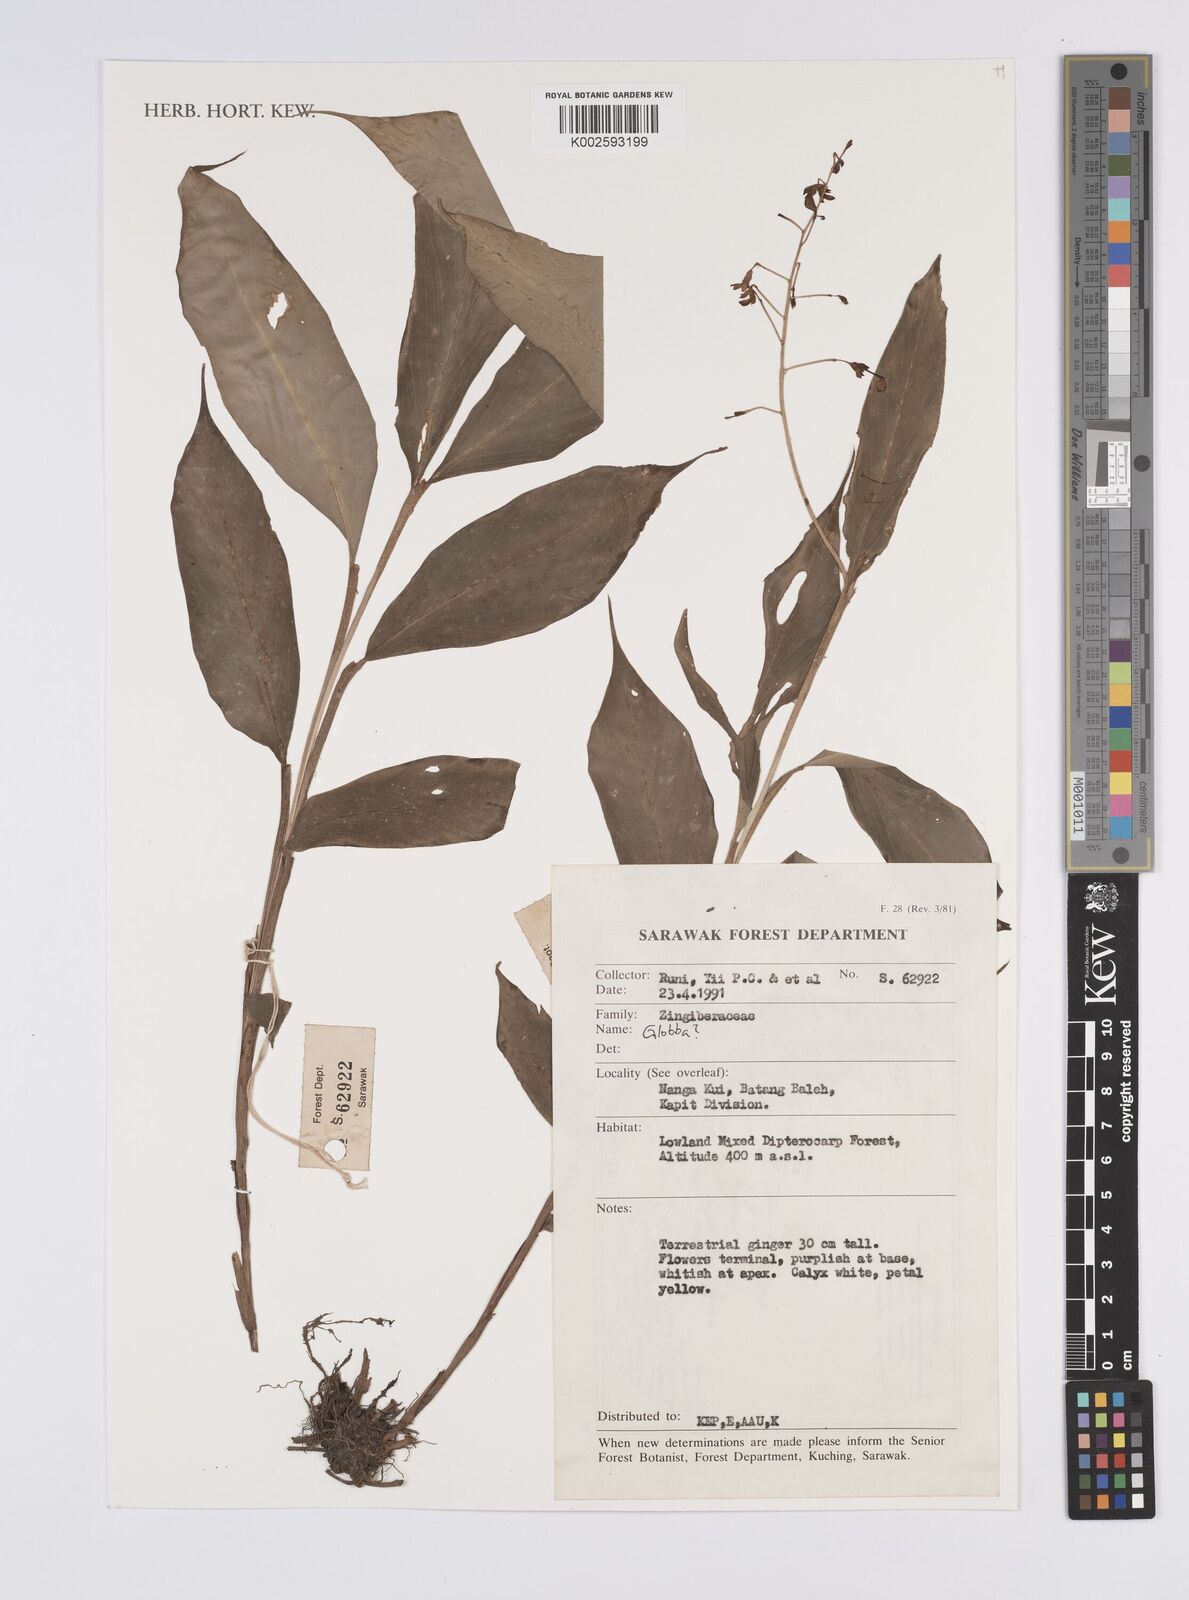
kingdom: Plantae
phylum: Tracheophyta
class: Liliopsida
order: Zingiberales
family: Zingiberaceae
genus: Globba
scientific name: Globba
